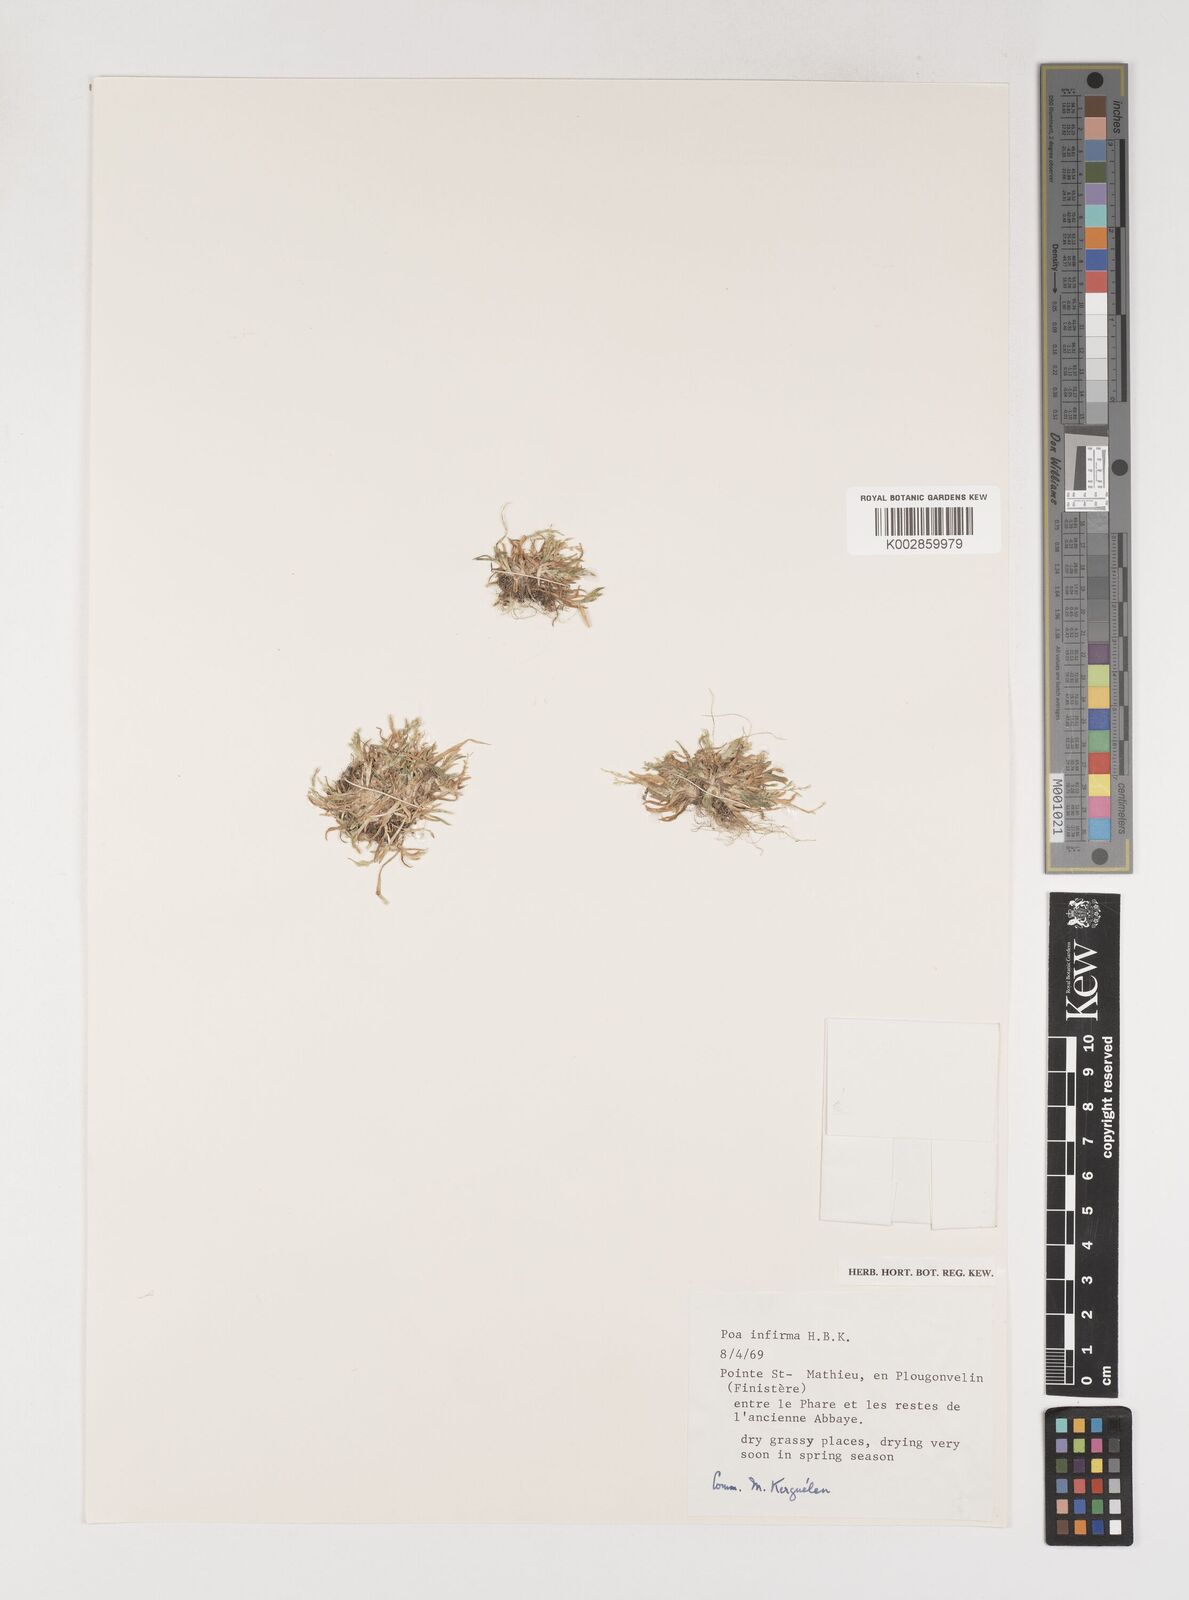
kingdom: Plantae
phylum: Tracheophyta
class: Liliopsida
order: Poales
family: Poaceae
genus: Poa
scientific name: Poa infirma
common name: Weak bluegrass
